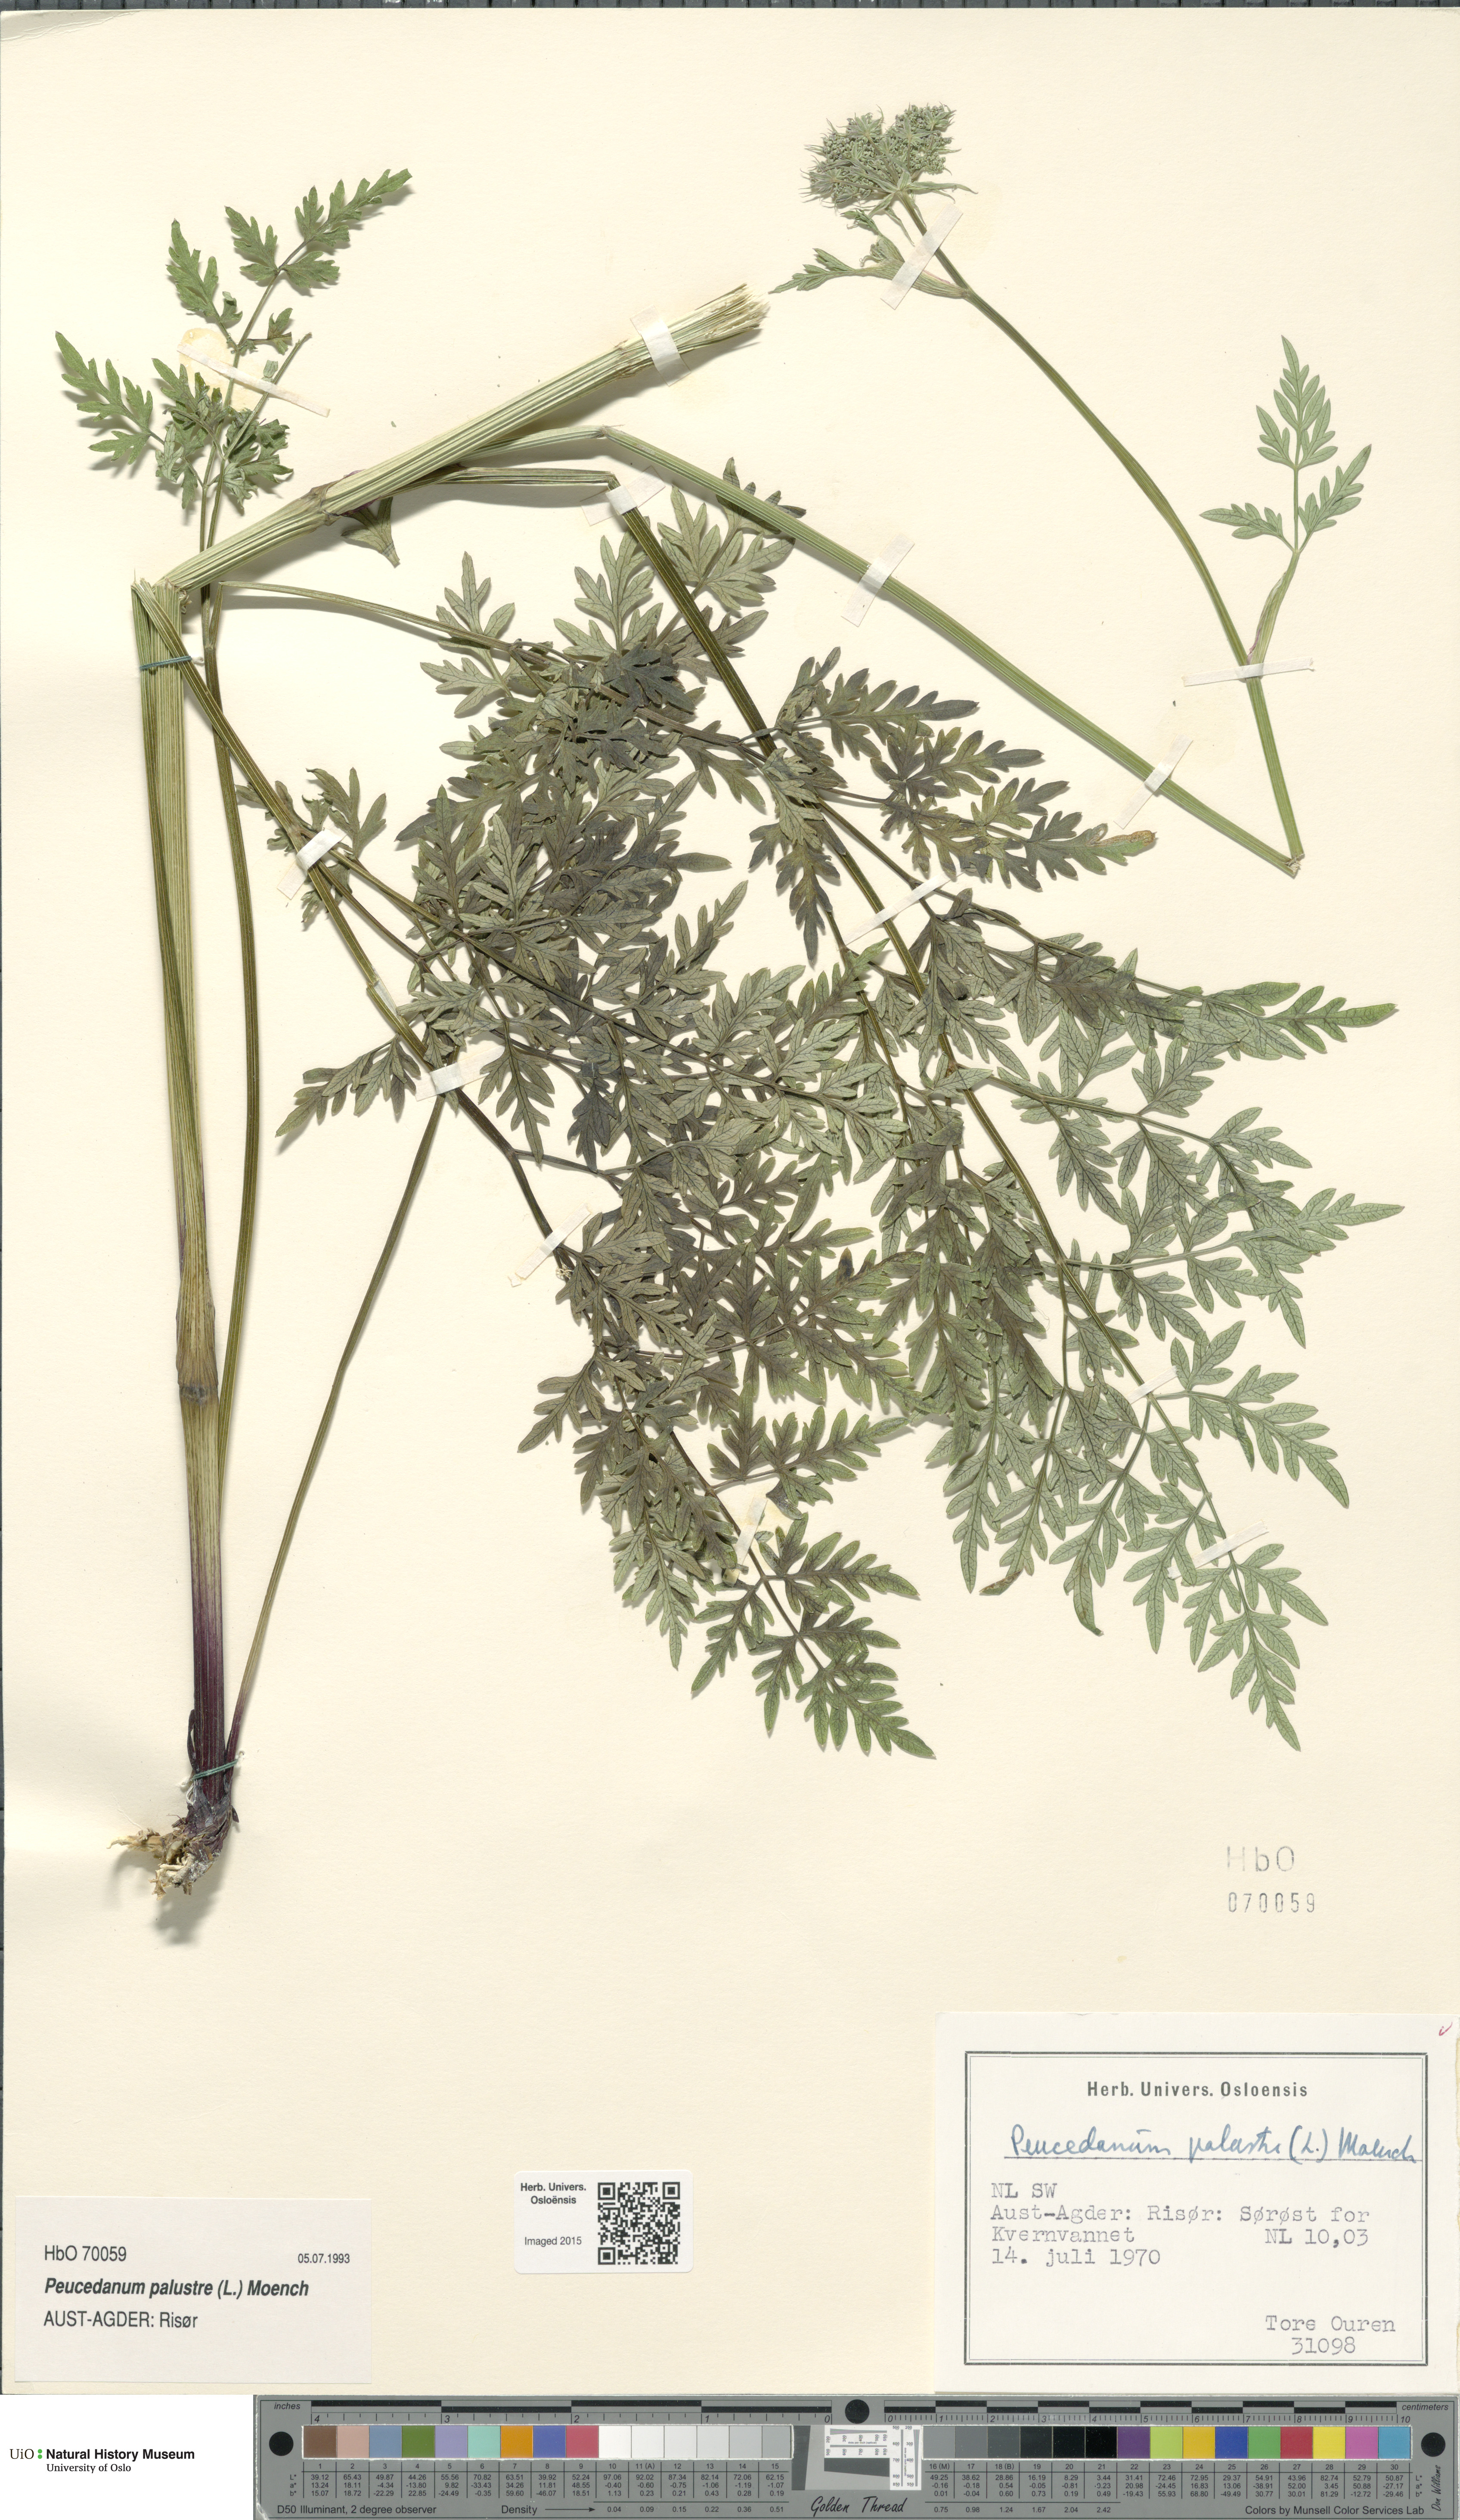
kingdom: Plantae
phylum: Tracheophyta
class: Magnoliopsida
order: Apiales
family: Apiaceae
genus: Thysselinum
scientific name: Thysselinum palustre
